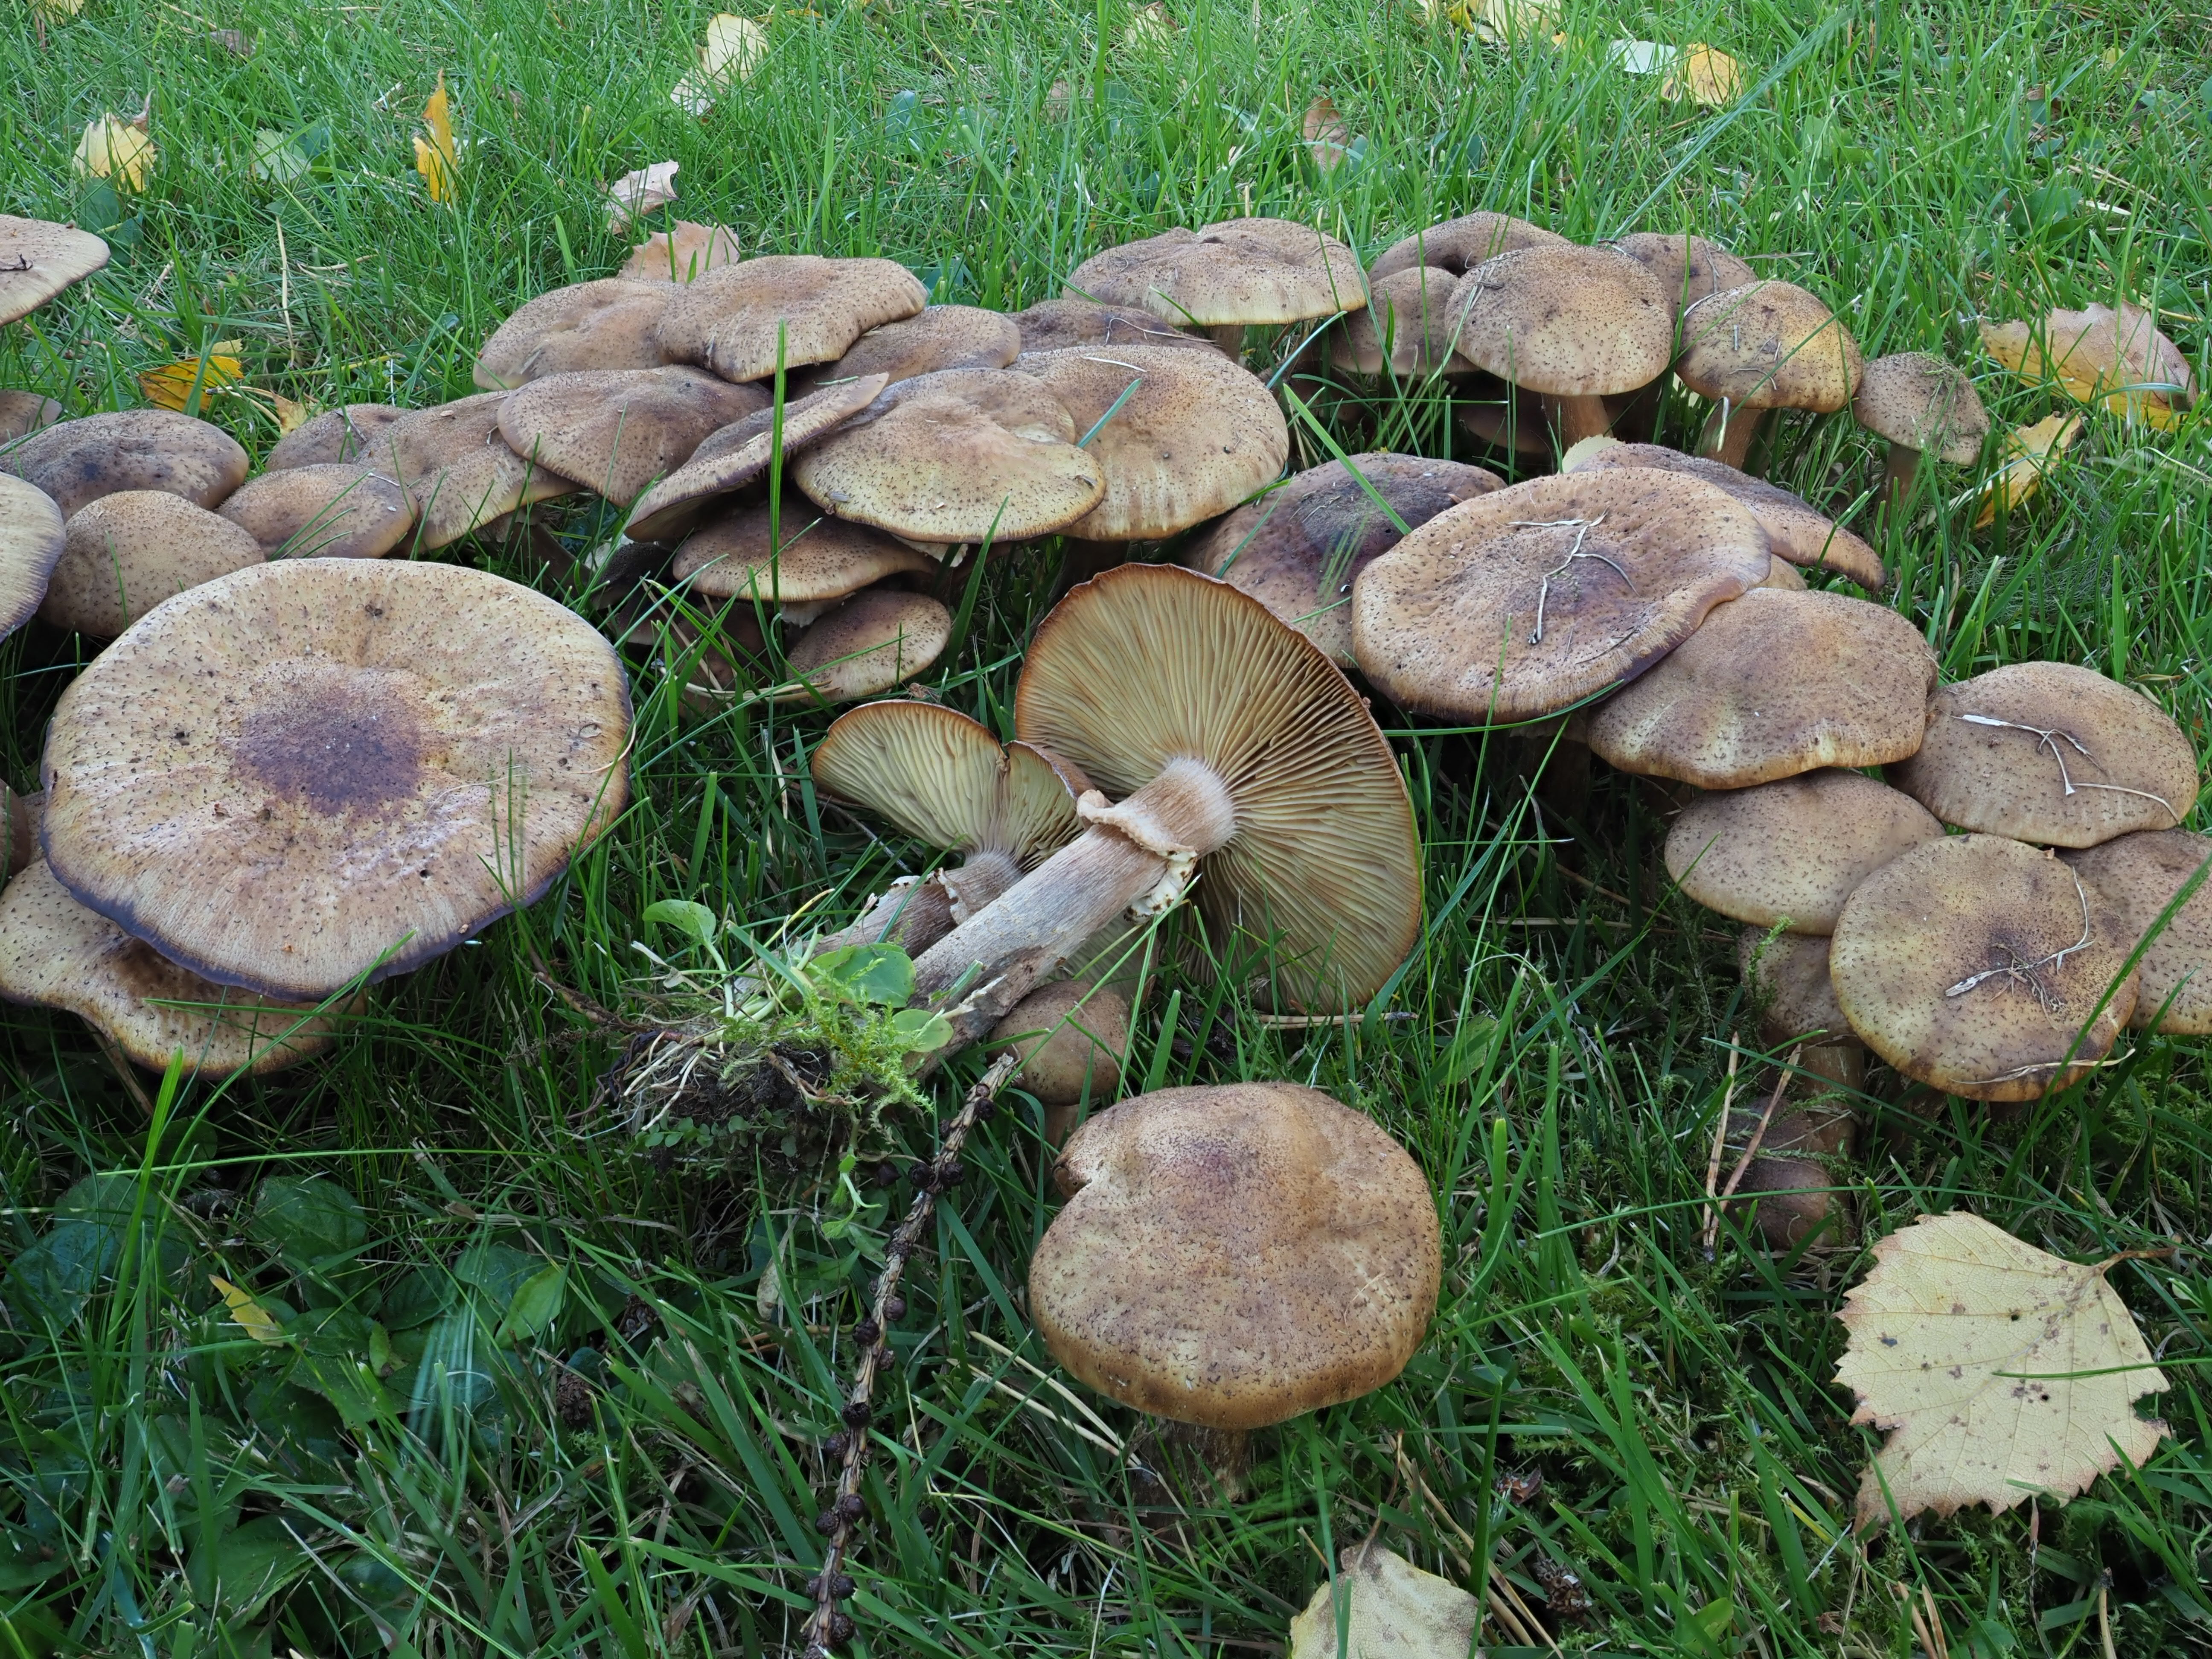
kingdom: Fungi
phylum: Basidiomycota
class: Agaricomycetes
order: Agaricales
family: Physalacriaceae
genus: Armillaria
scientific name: Armillaria borealis
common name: Northern honey fungus
